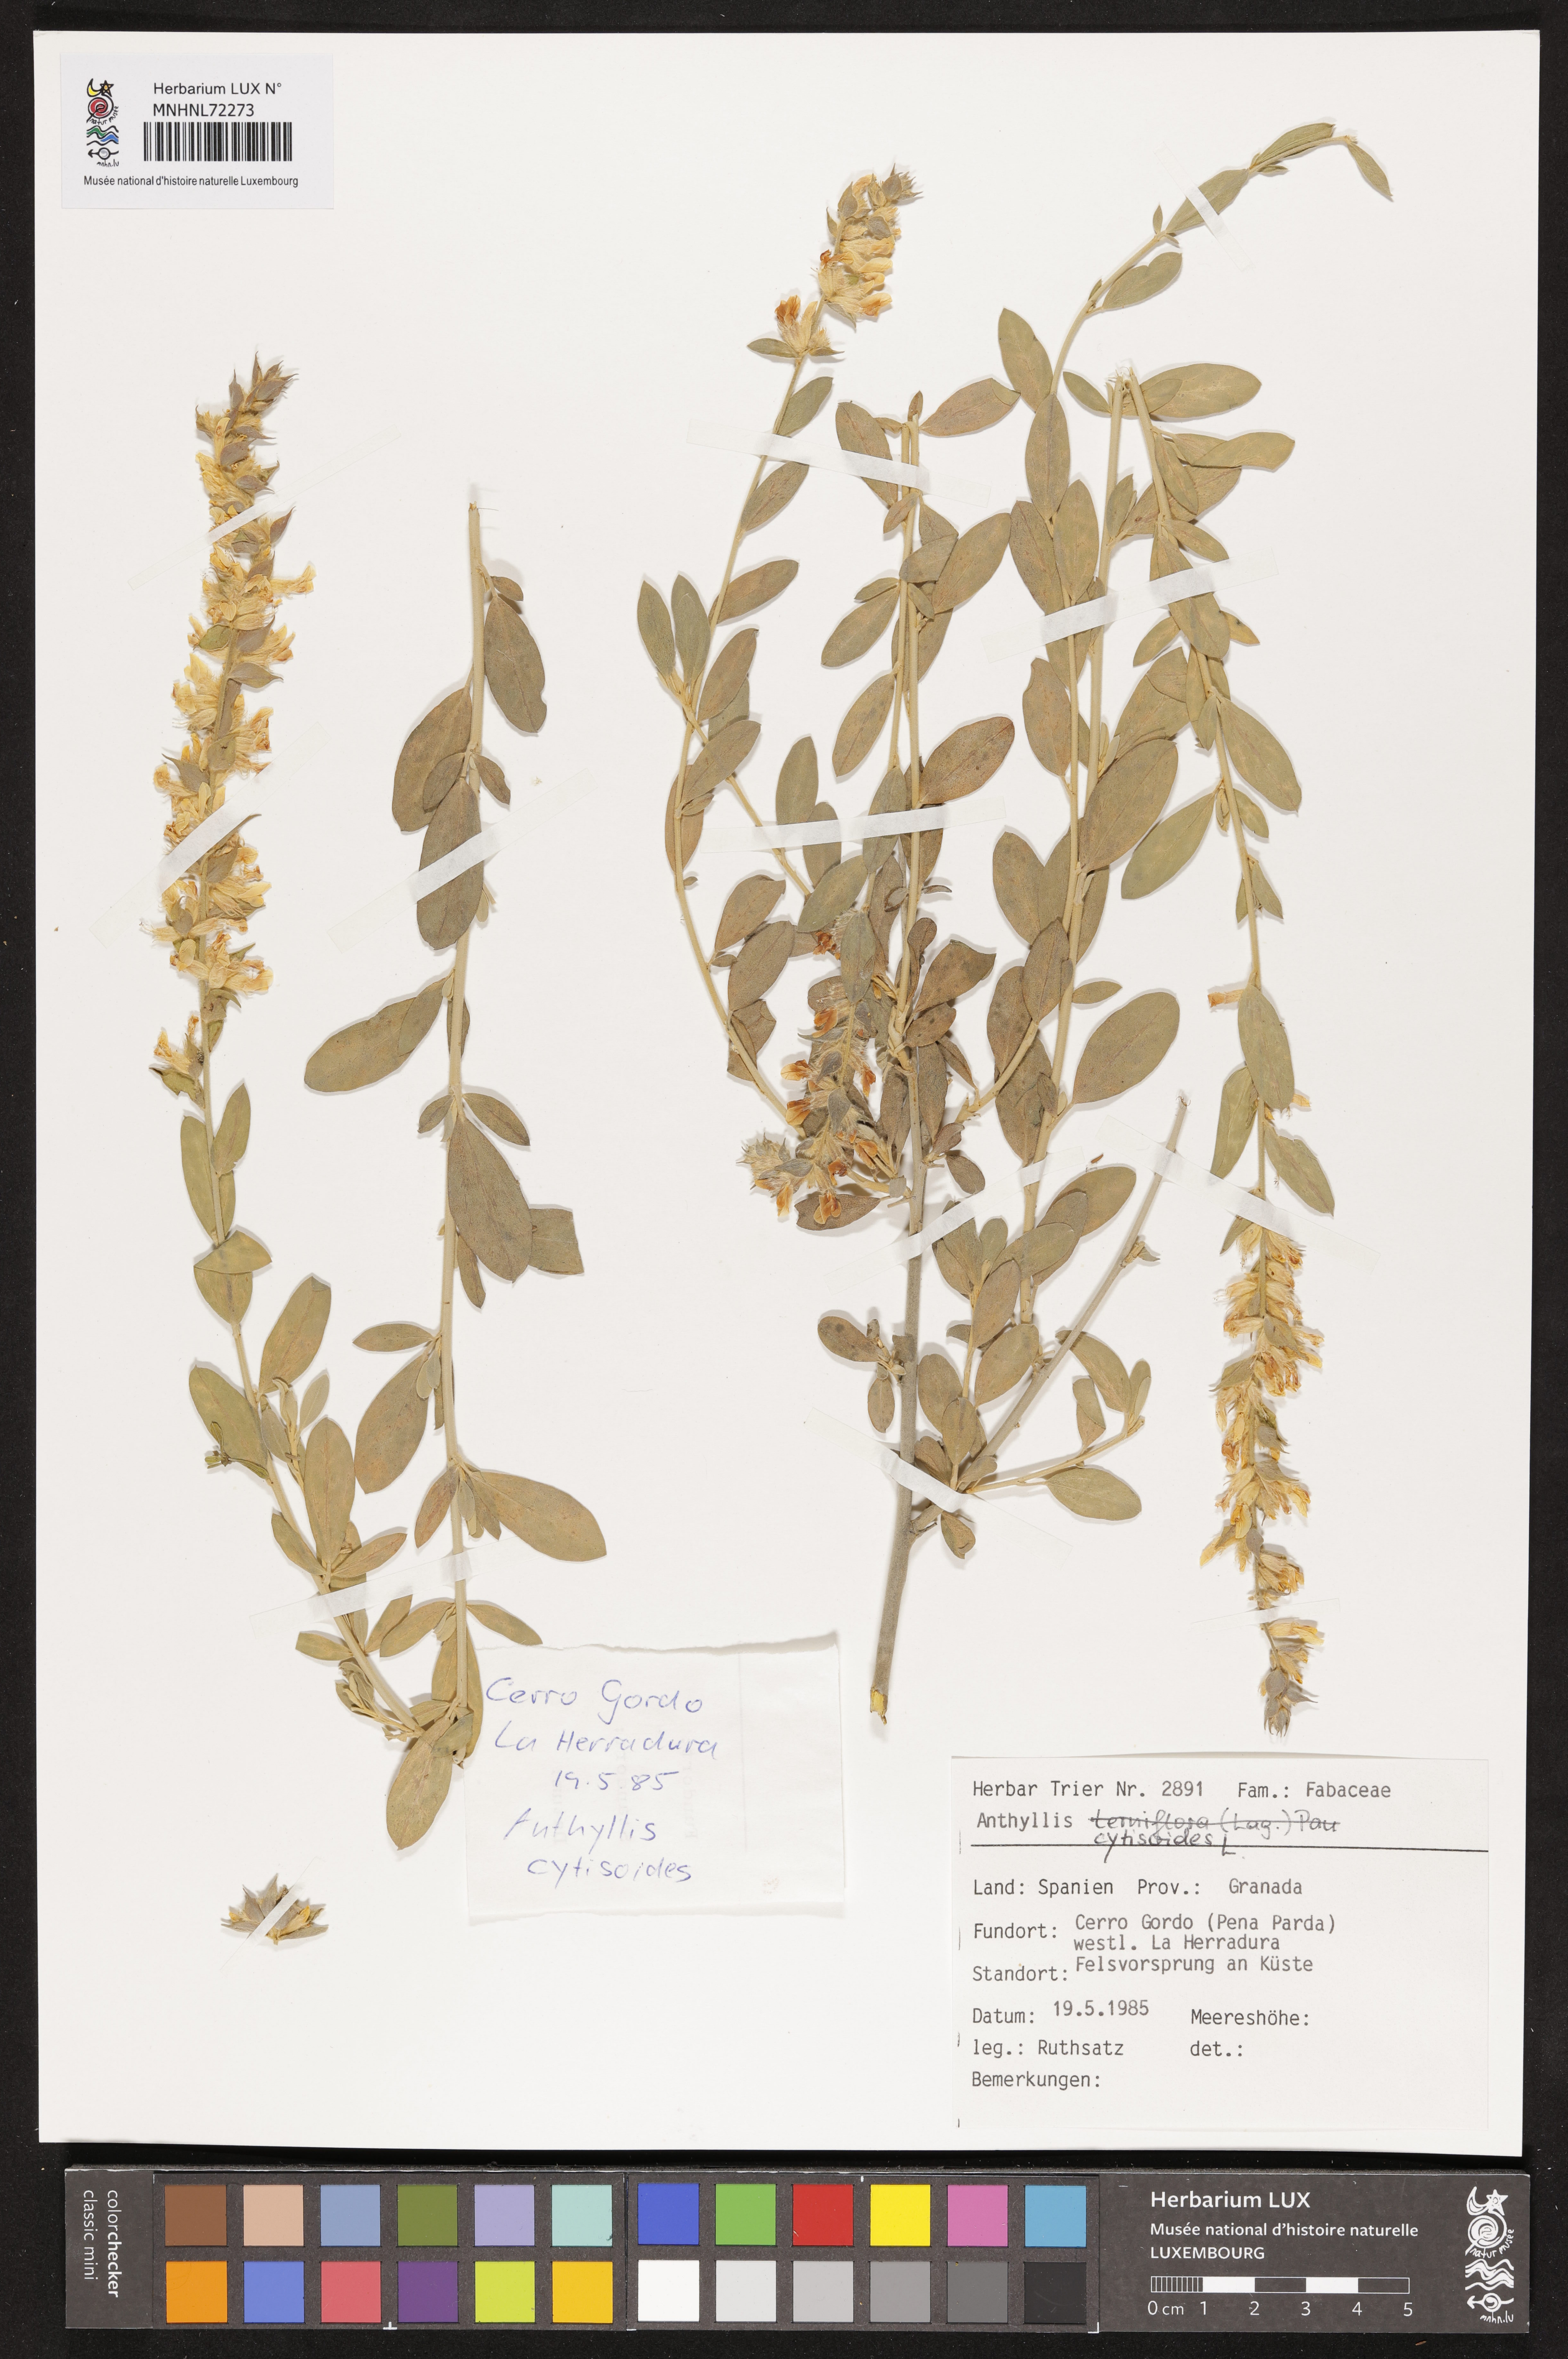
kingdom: Plantae
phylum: Tracheophyta
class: Magnoliopsida
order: Fabales
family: Fabaceae
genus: Anthyllis
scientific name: Anthyllis cytisoides
